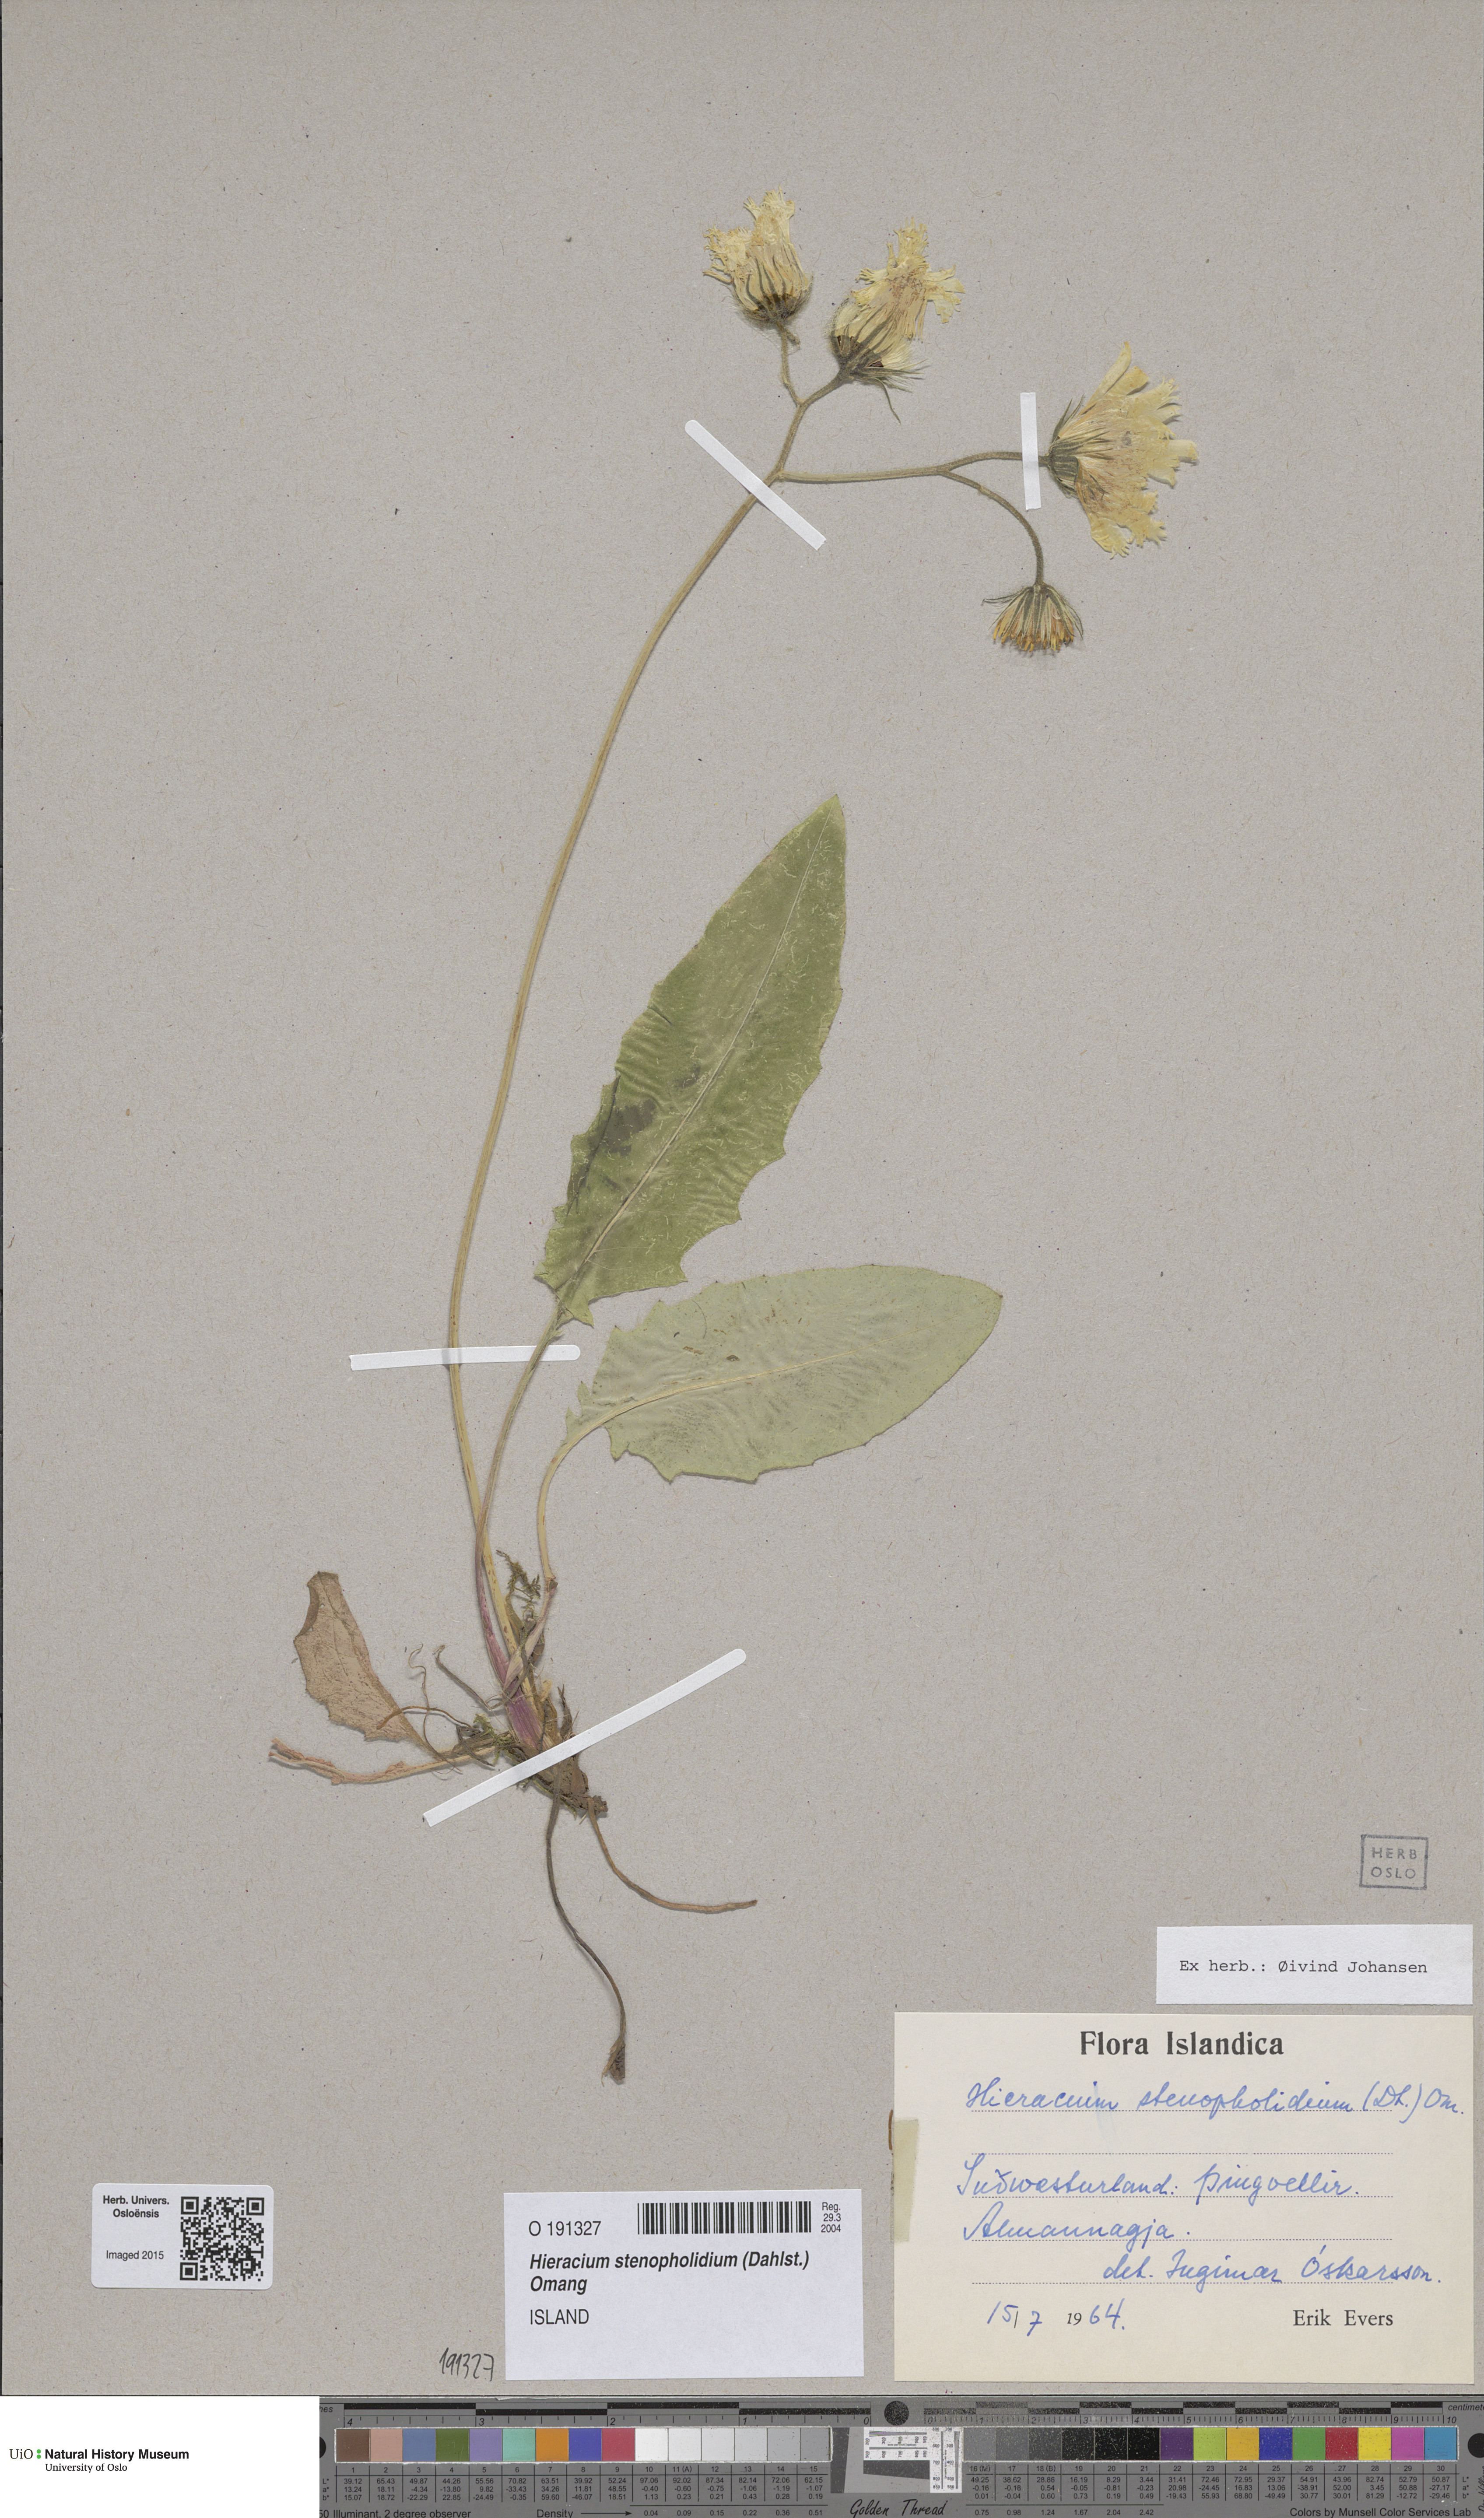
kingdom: Plantae
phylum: Tracheophyta
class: Magnoliopsida
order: Asterales
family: Asteraceae
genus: Hieracium
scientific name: Hieracium stenopholidium
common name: Western hawkweed
